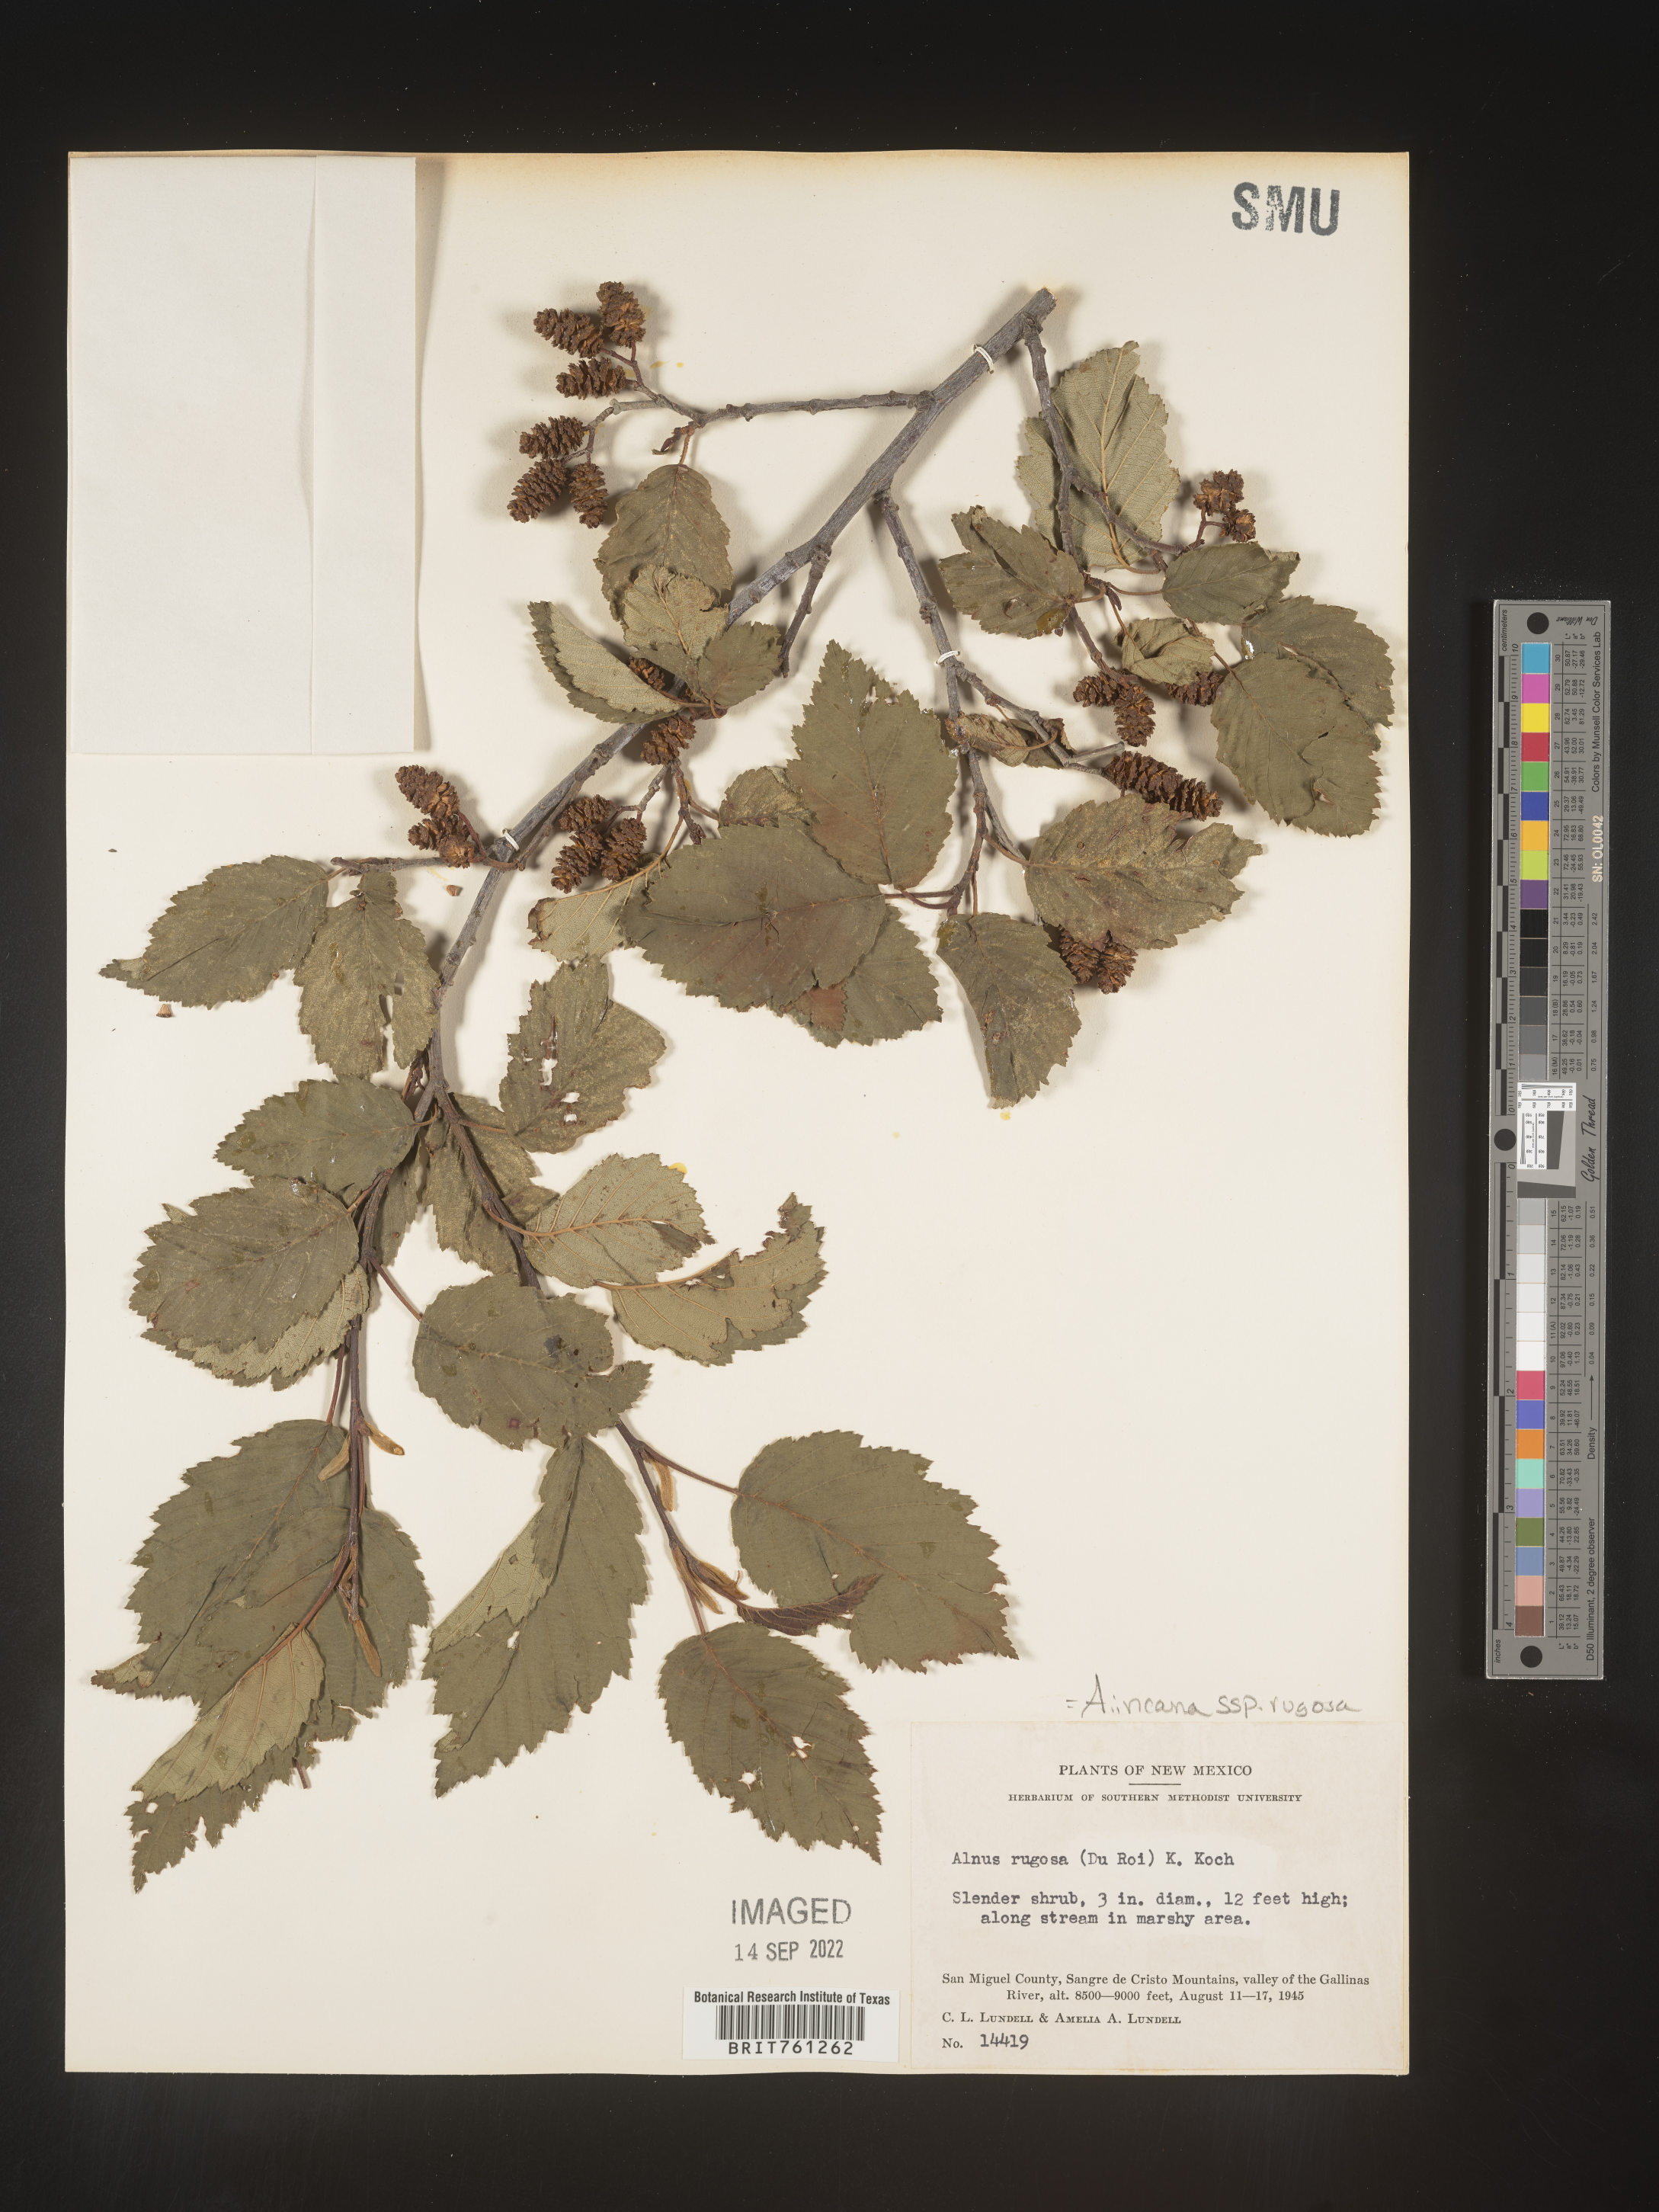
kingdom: Plantae
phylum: Tracheophyta
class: Magnoliopsida
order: Fagales
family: Betulaceae
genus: Alnus
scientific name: Alnus incana
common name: Grey alder
